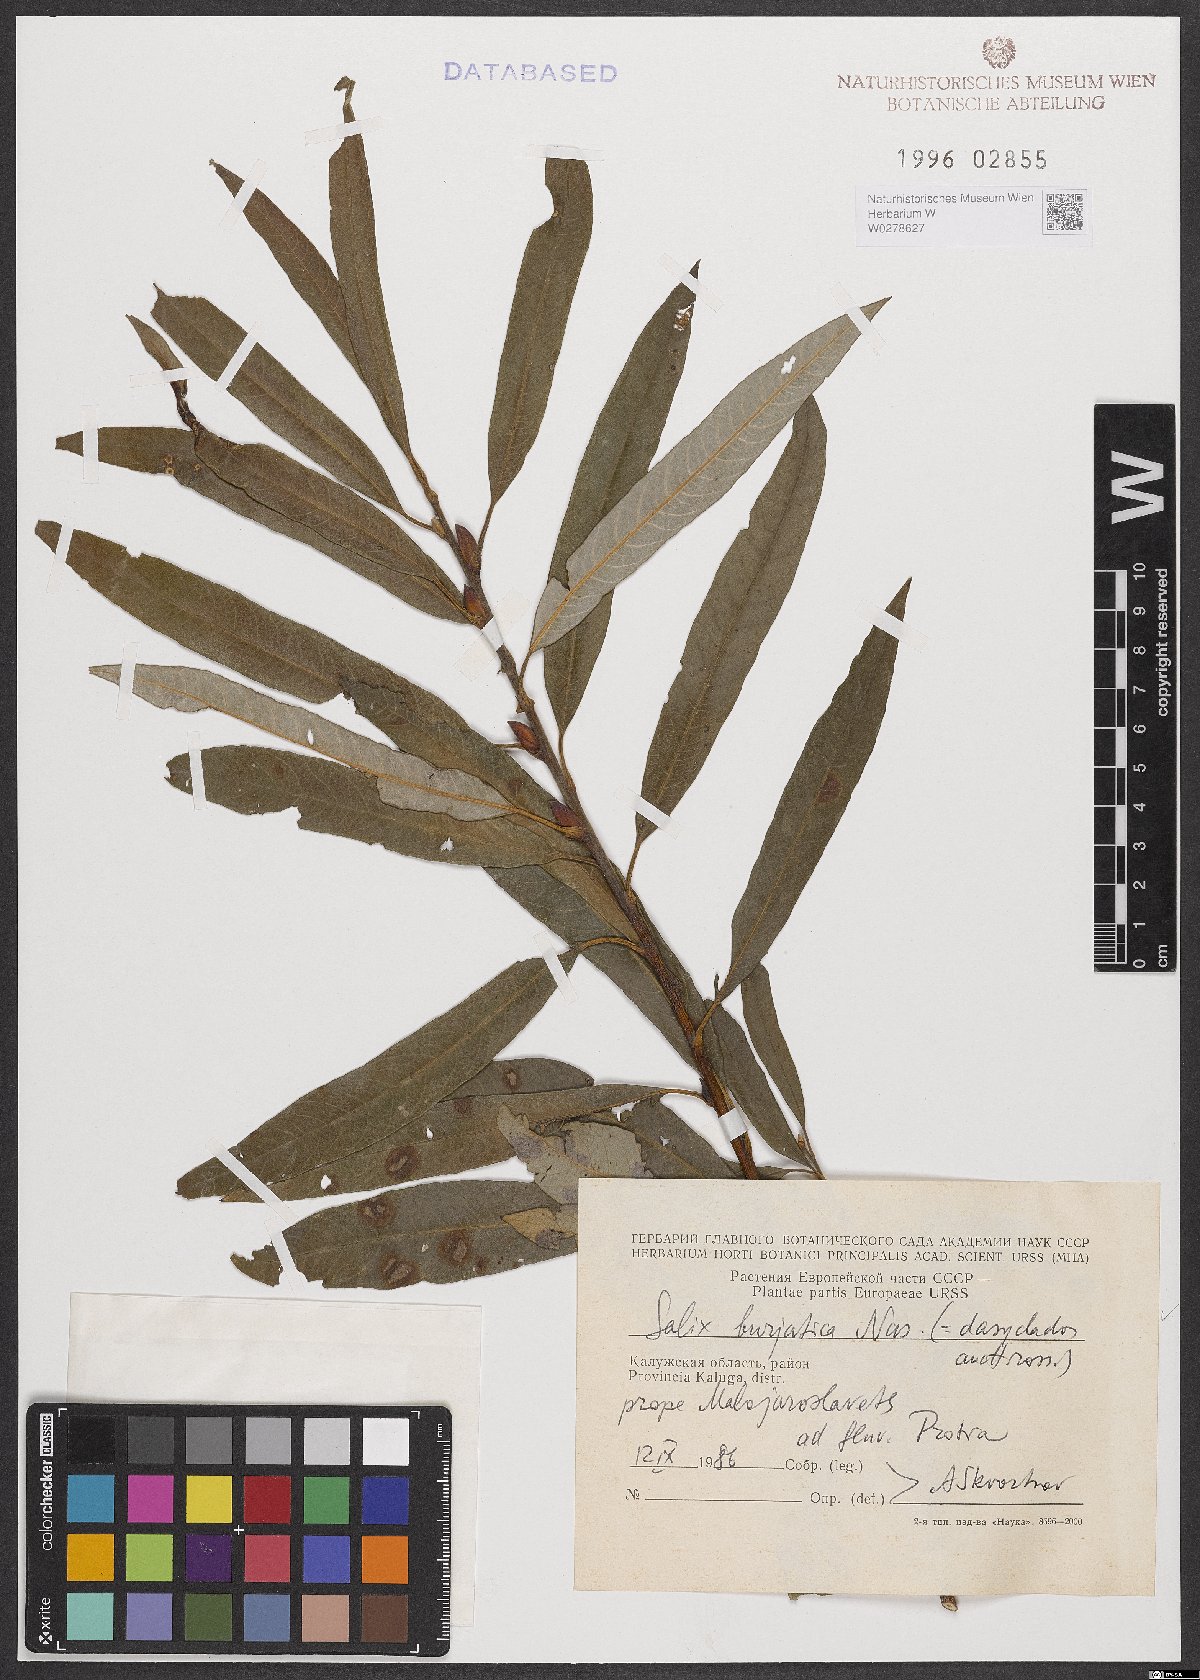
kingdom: Plantae
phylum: Tracheophyta
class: Magnoliopsida
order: Malpighiales
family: Salicaceae
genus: Salix
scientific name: Salix gmelinii
